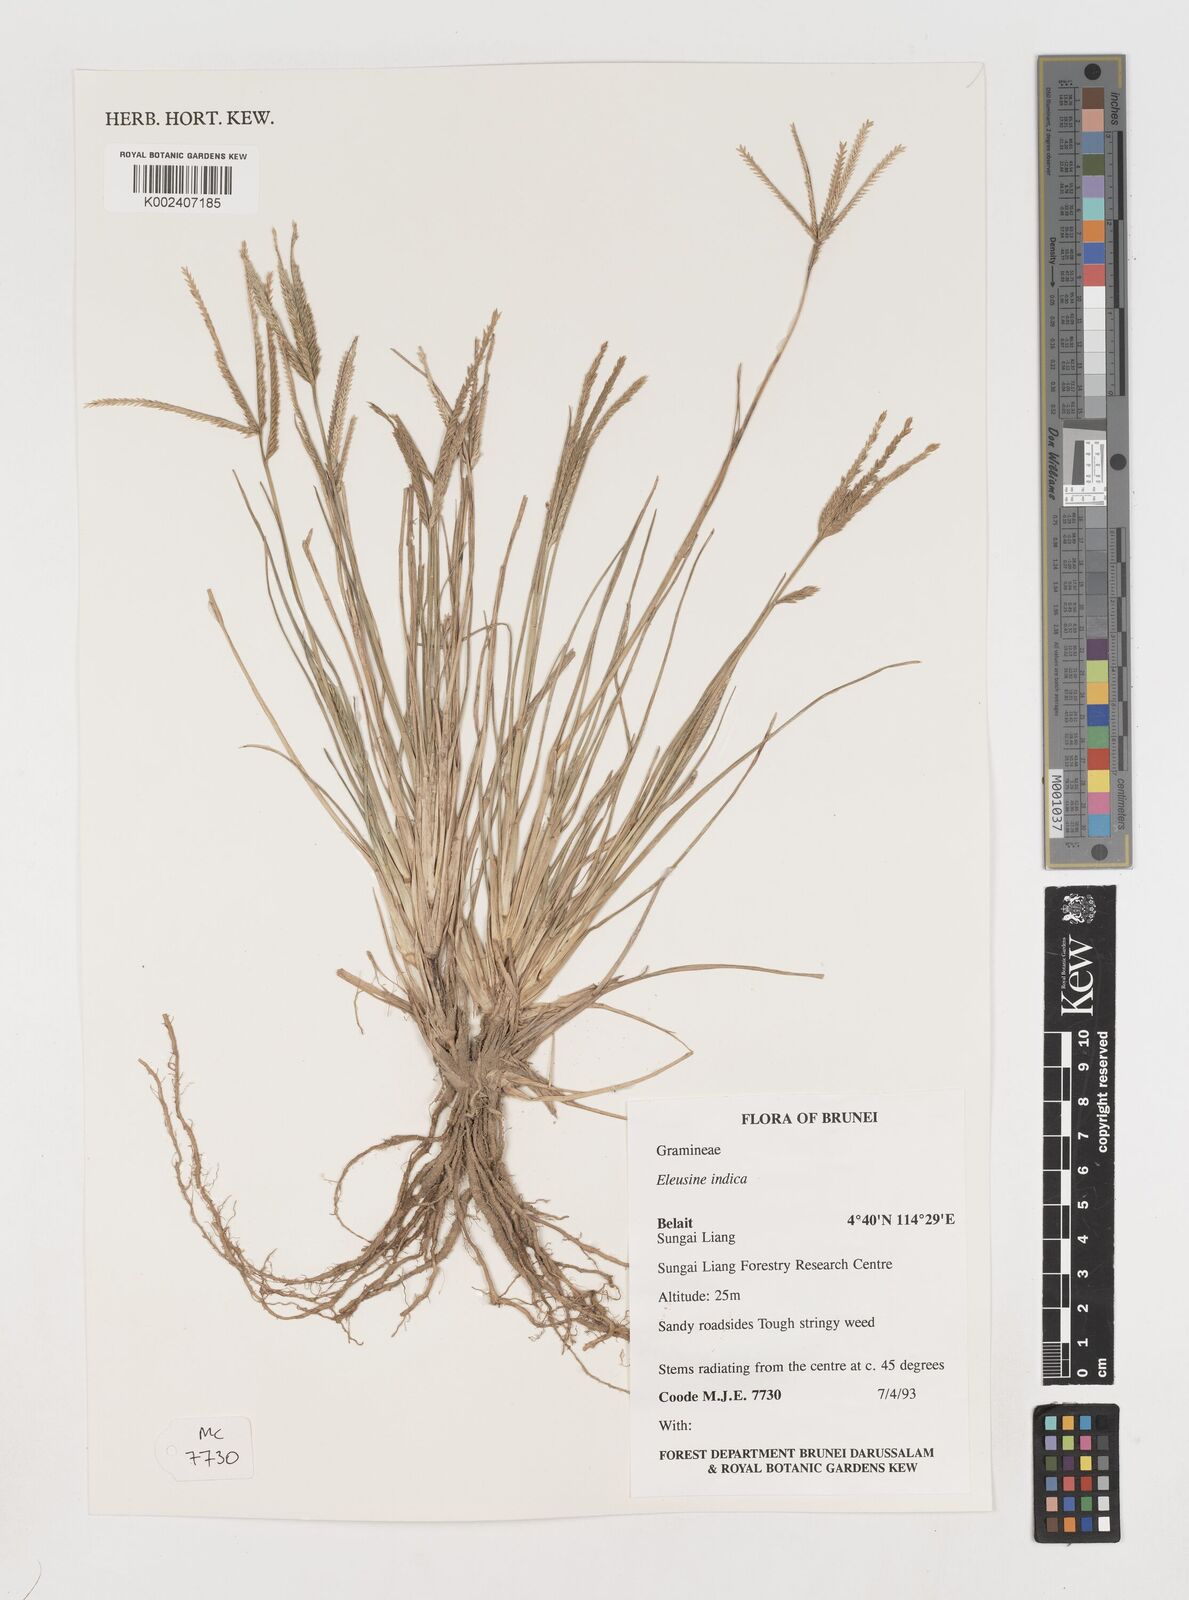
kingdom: Plantae
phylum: Tracheophyta
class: Liliopsida
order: Poales
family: Poaceae
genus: Eleusine
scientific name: Eleusine indica
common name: Yard-grass
